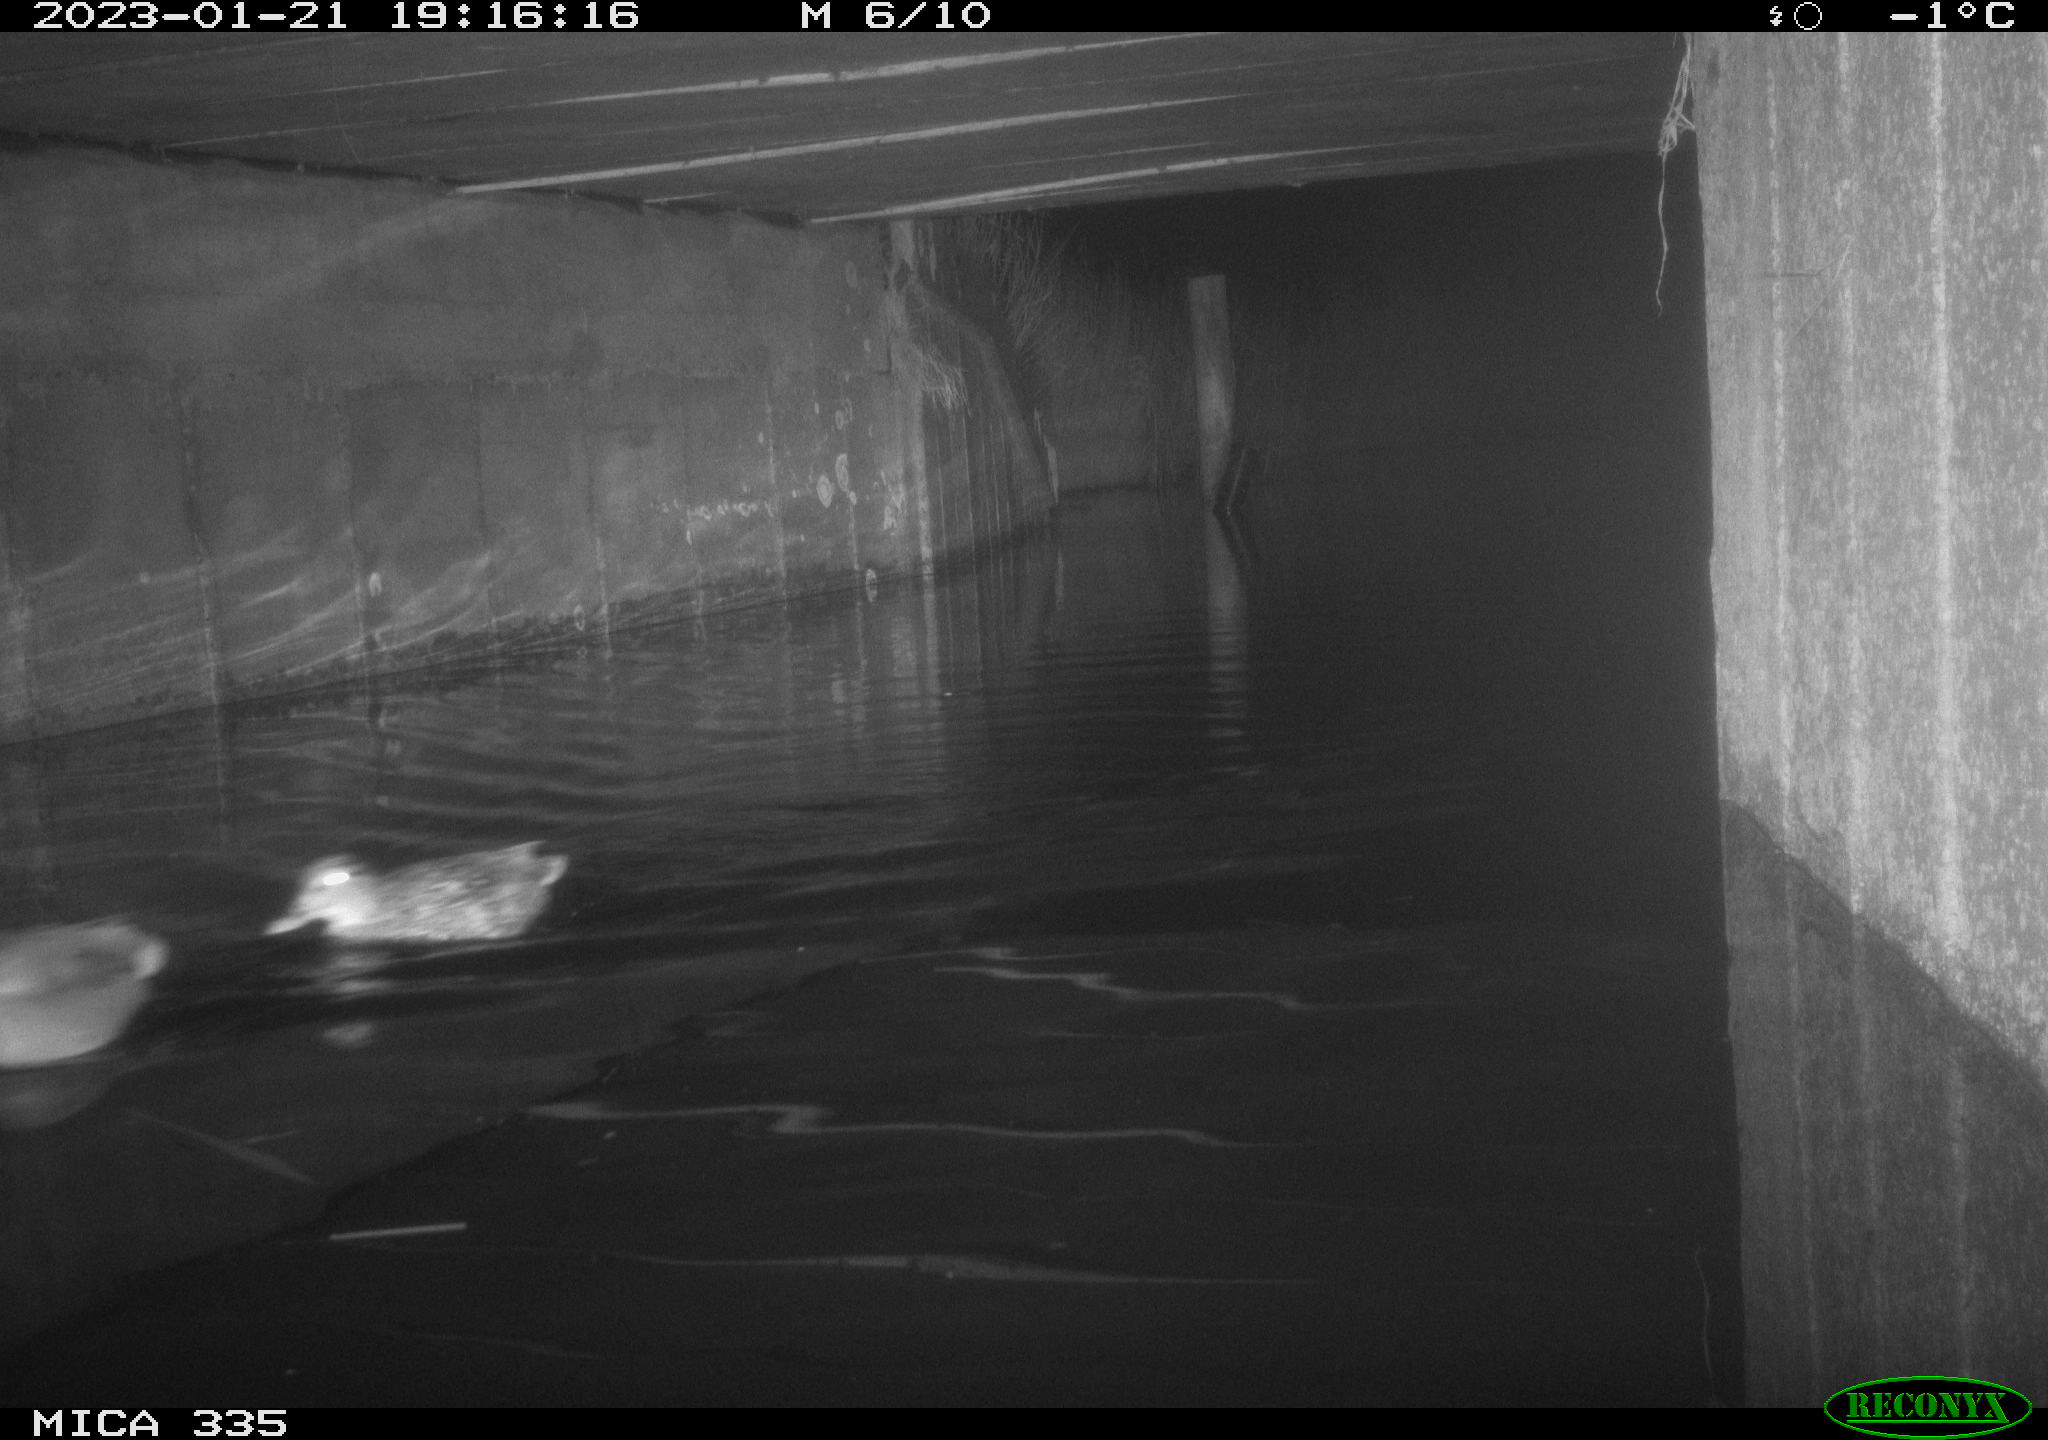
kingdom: Animalia
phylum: Chordata
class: Aves
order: Anseriformes
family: Anatidae
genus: Anas
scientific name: Anas
